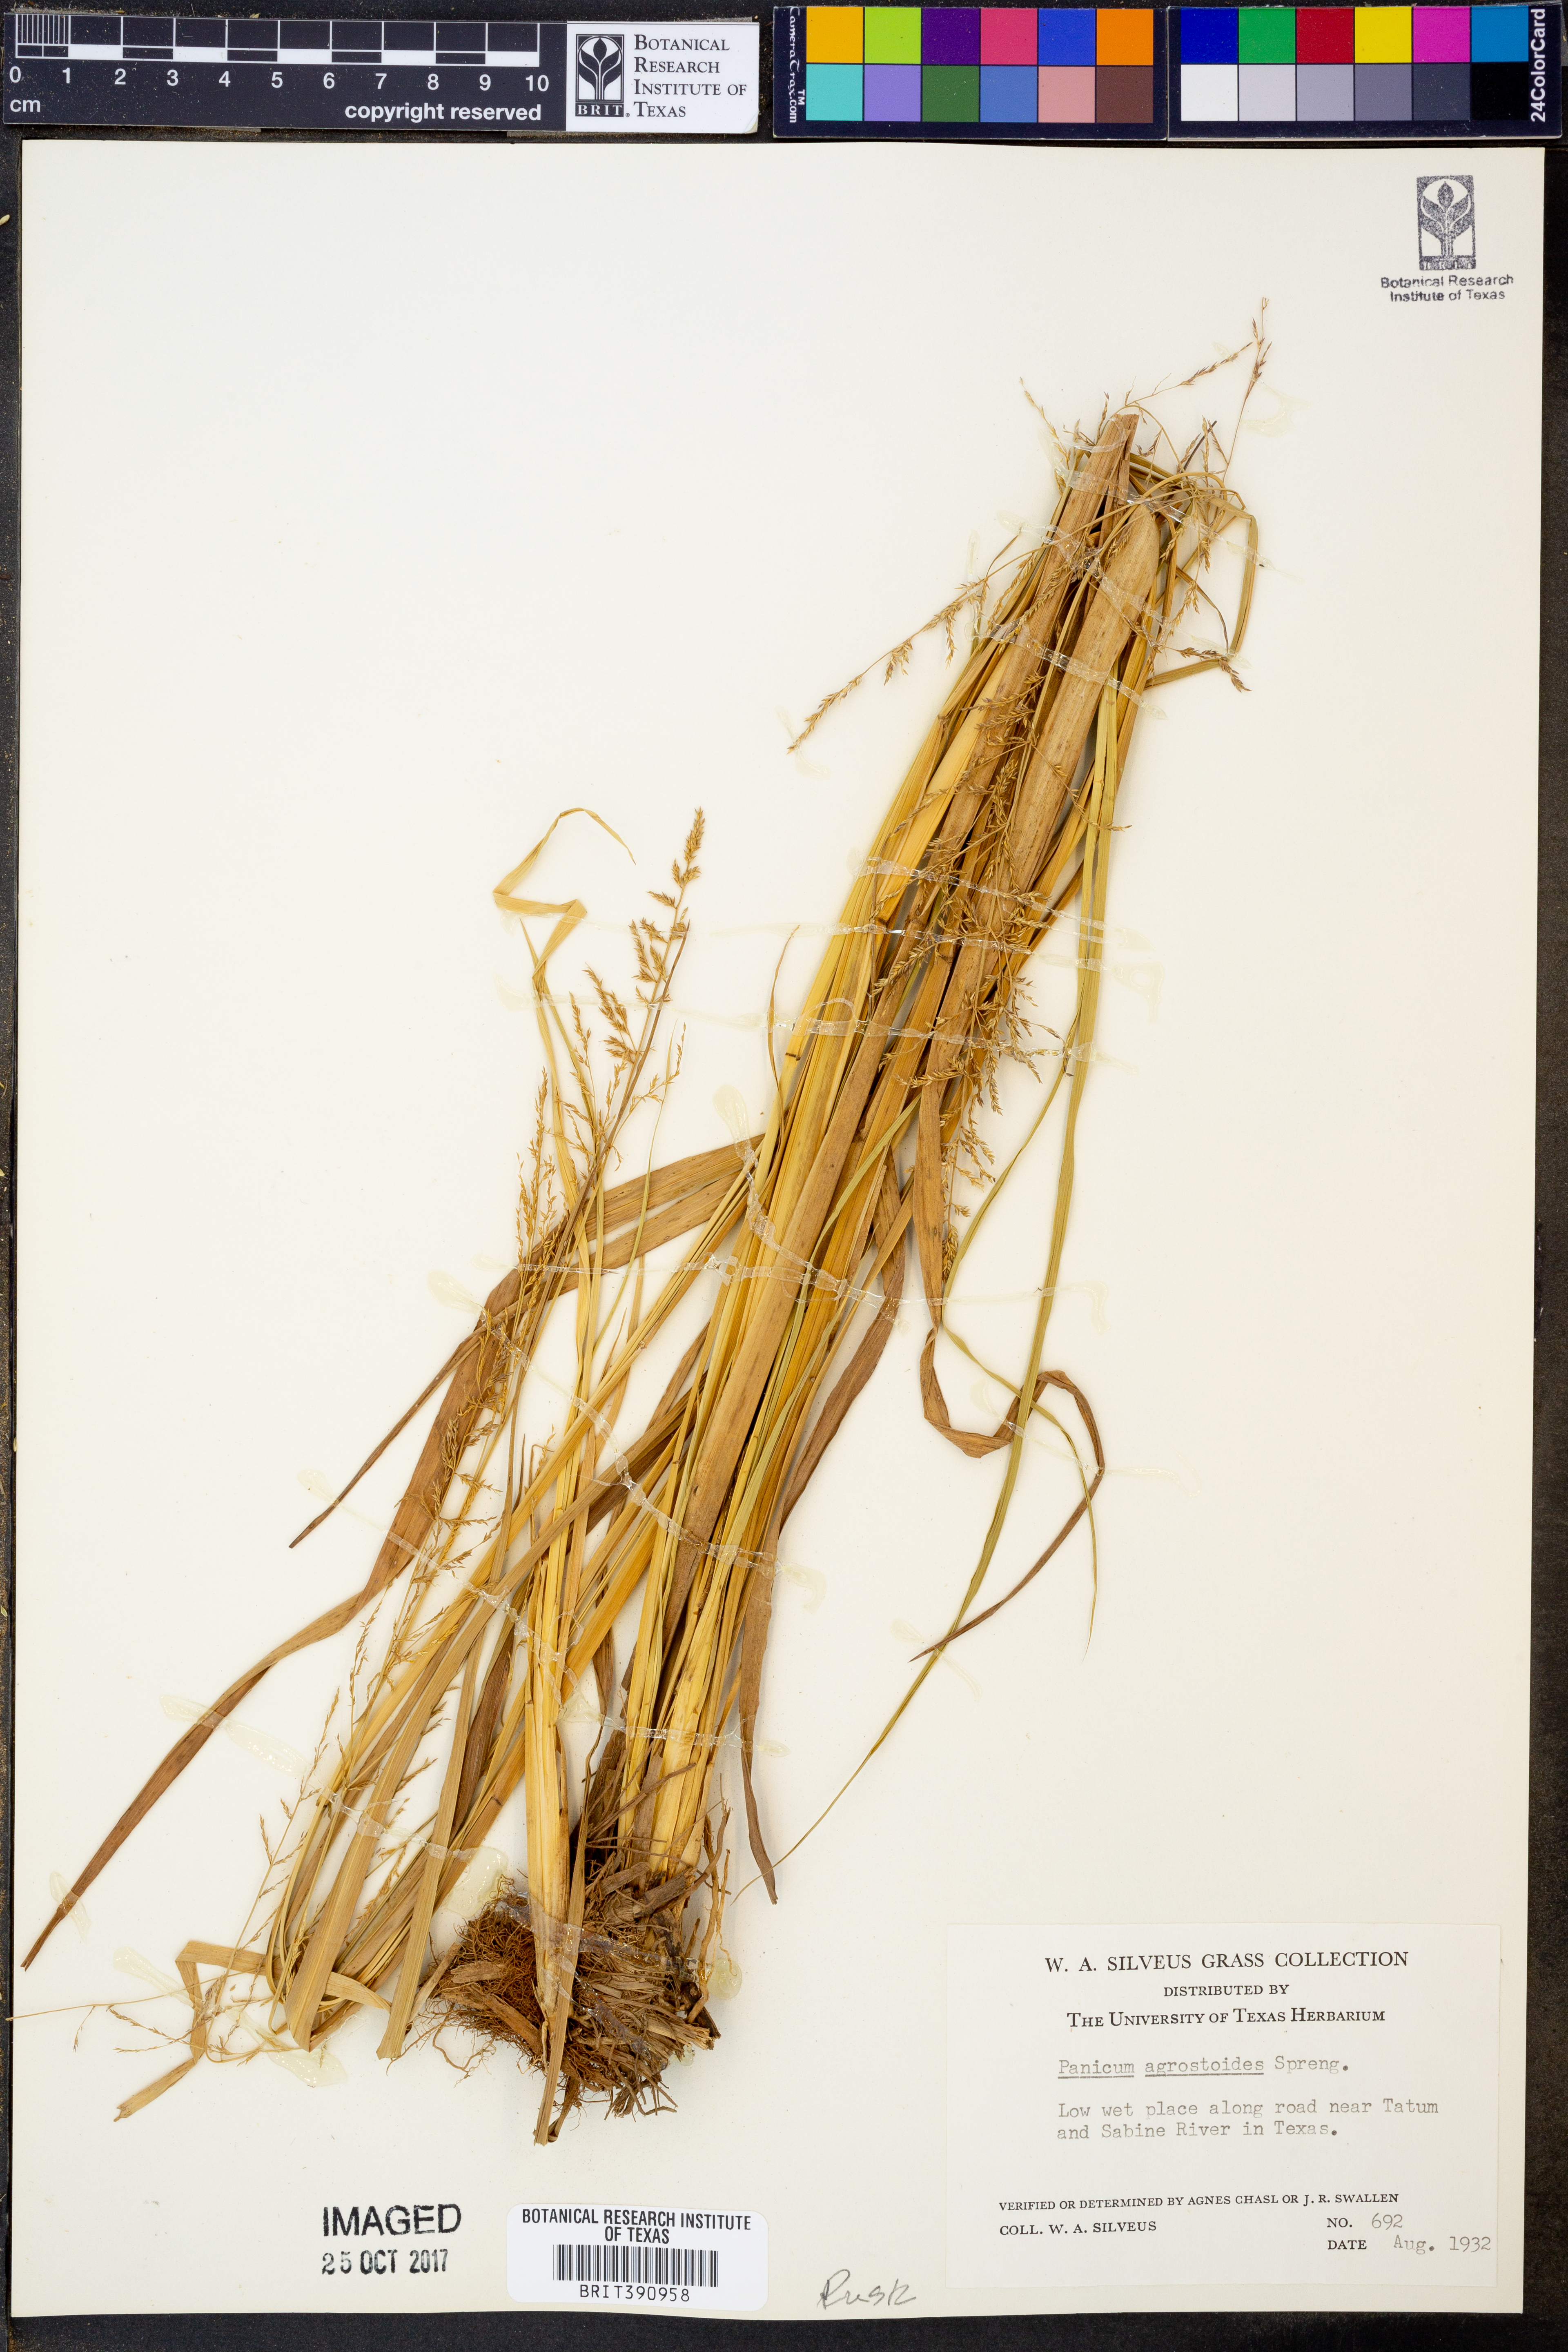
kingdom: Plantae
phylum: Tracheophyta
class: Liliopsida
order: Poales
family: Poaceae
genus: Steinchisma
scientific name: Steinchisma laxum
